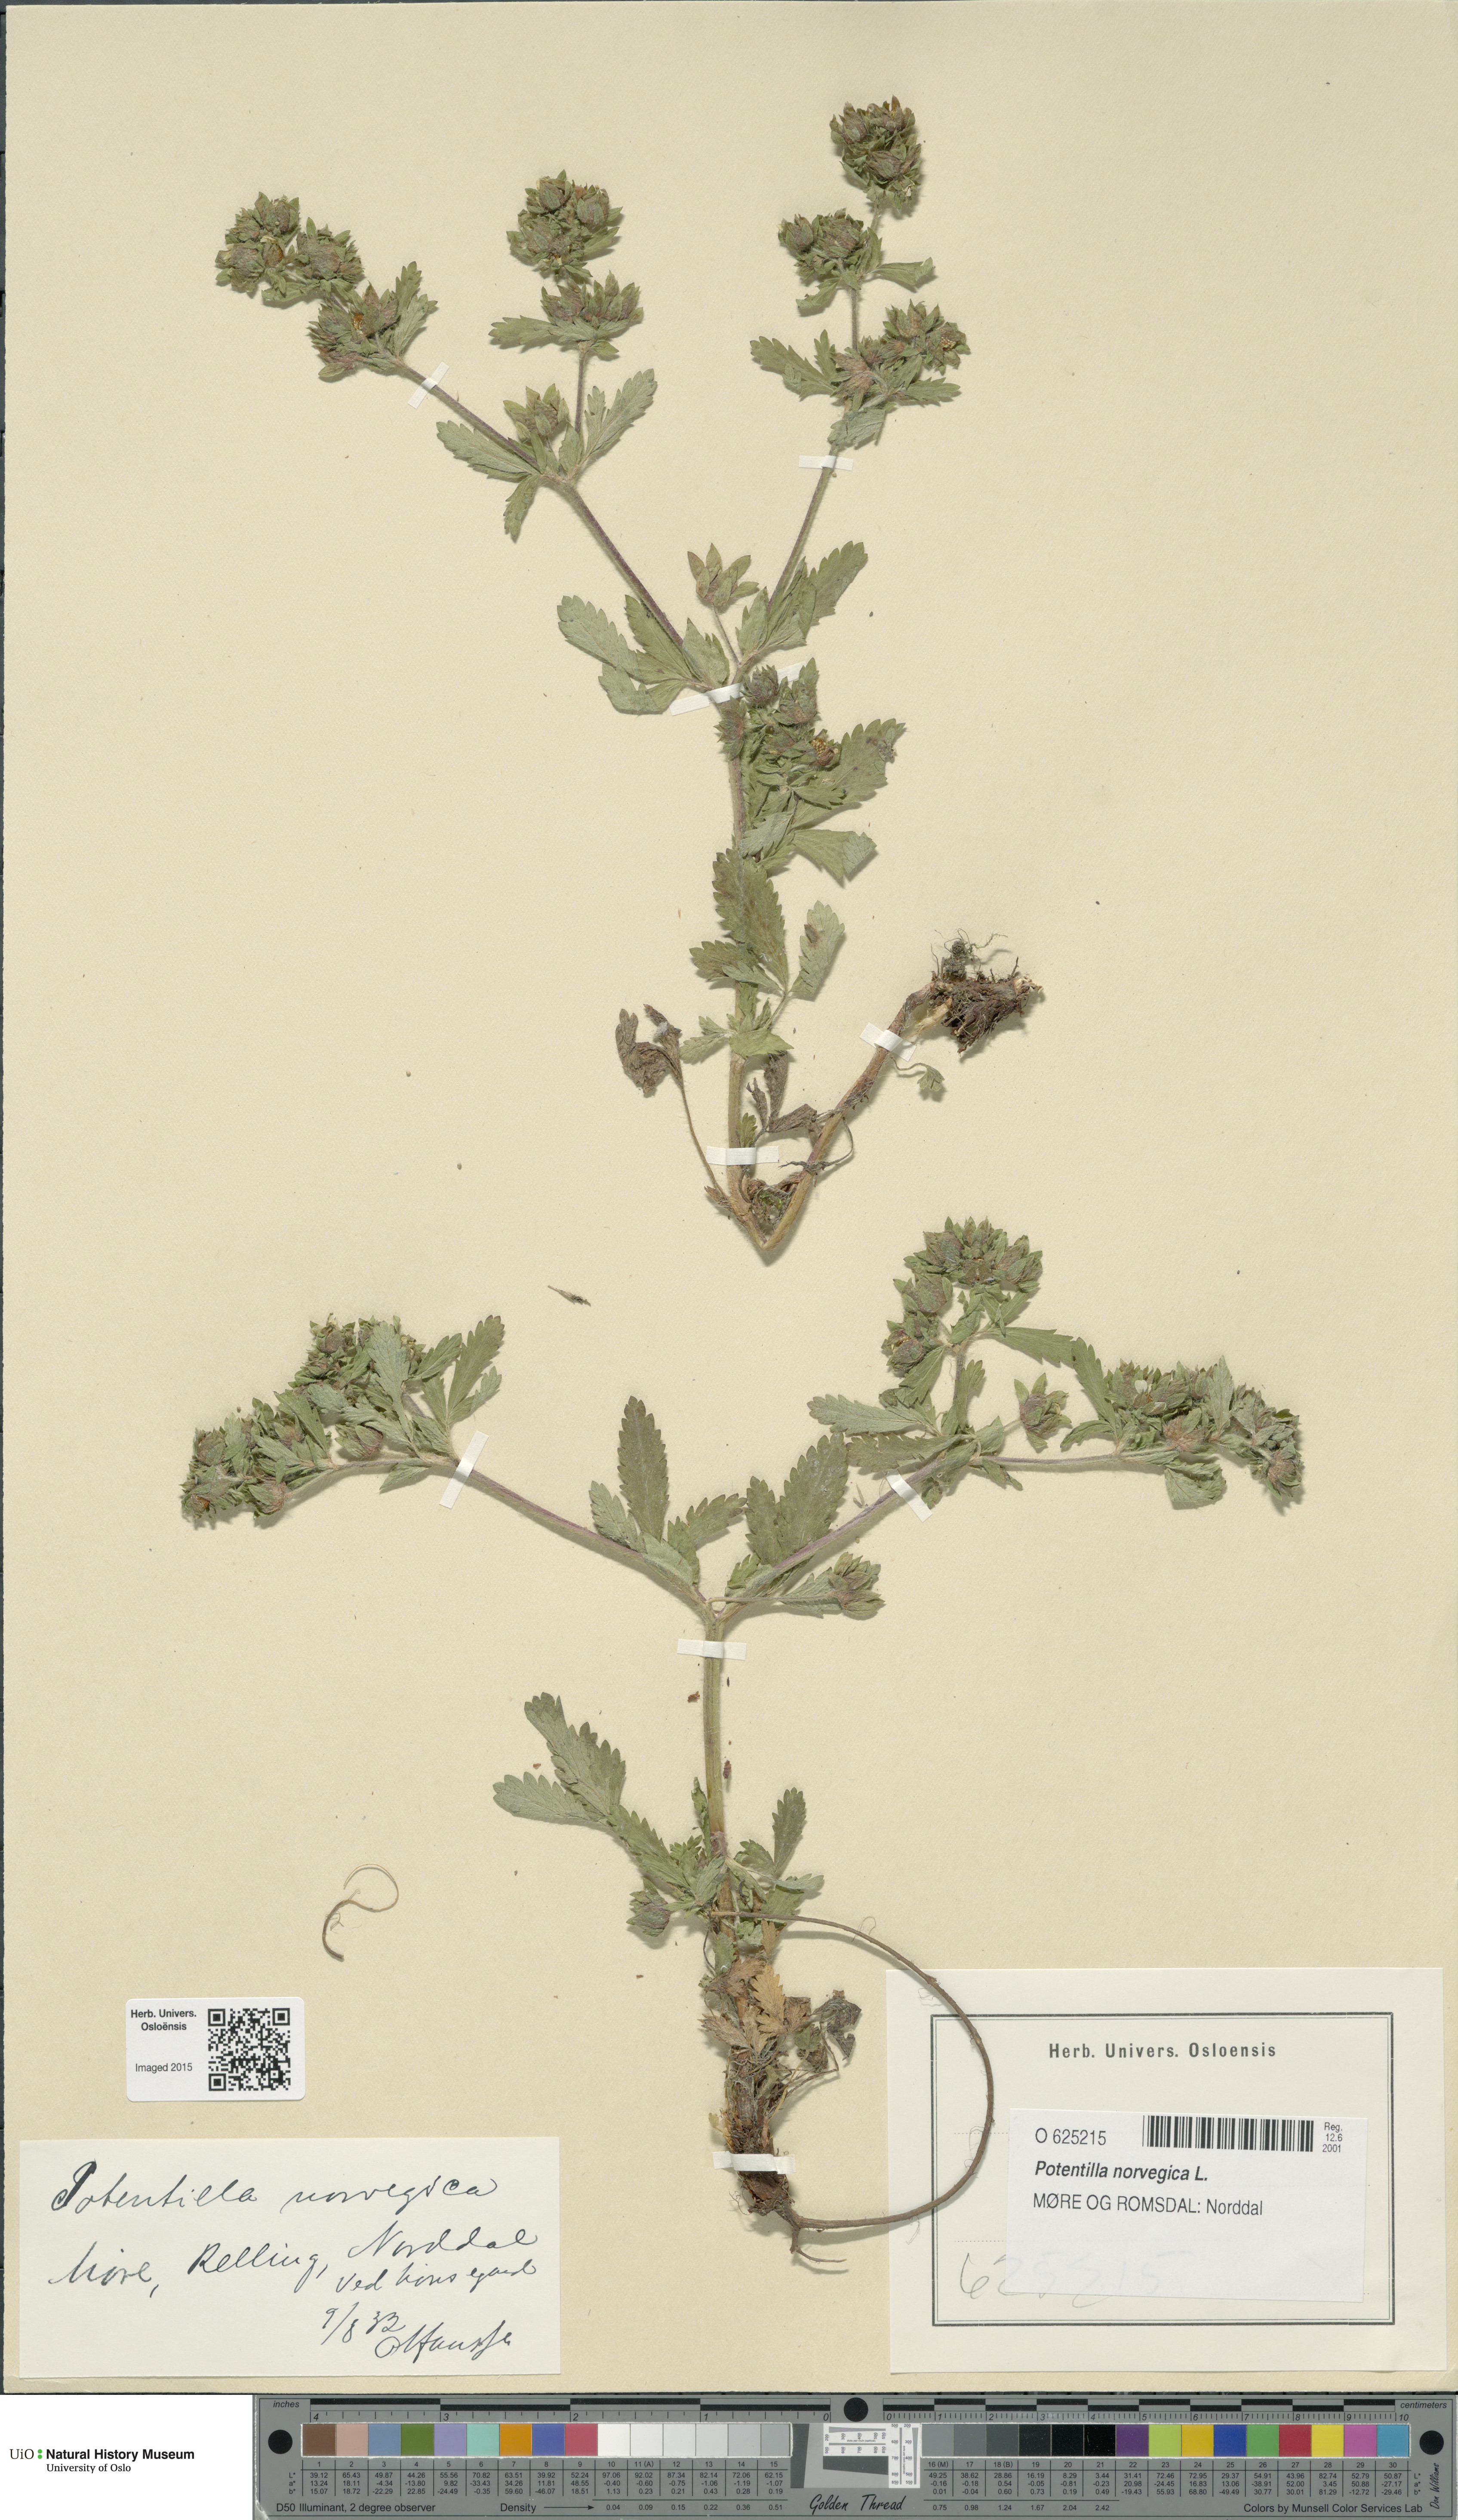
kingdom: Plantae
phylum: Tracheophyta
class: Magnoliopsida
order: Rosales
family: Rosaceae
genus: Potentilla
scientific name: Potentilla norvegica
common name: Ternate-leaved cinquefoil
